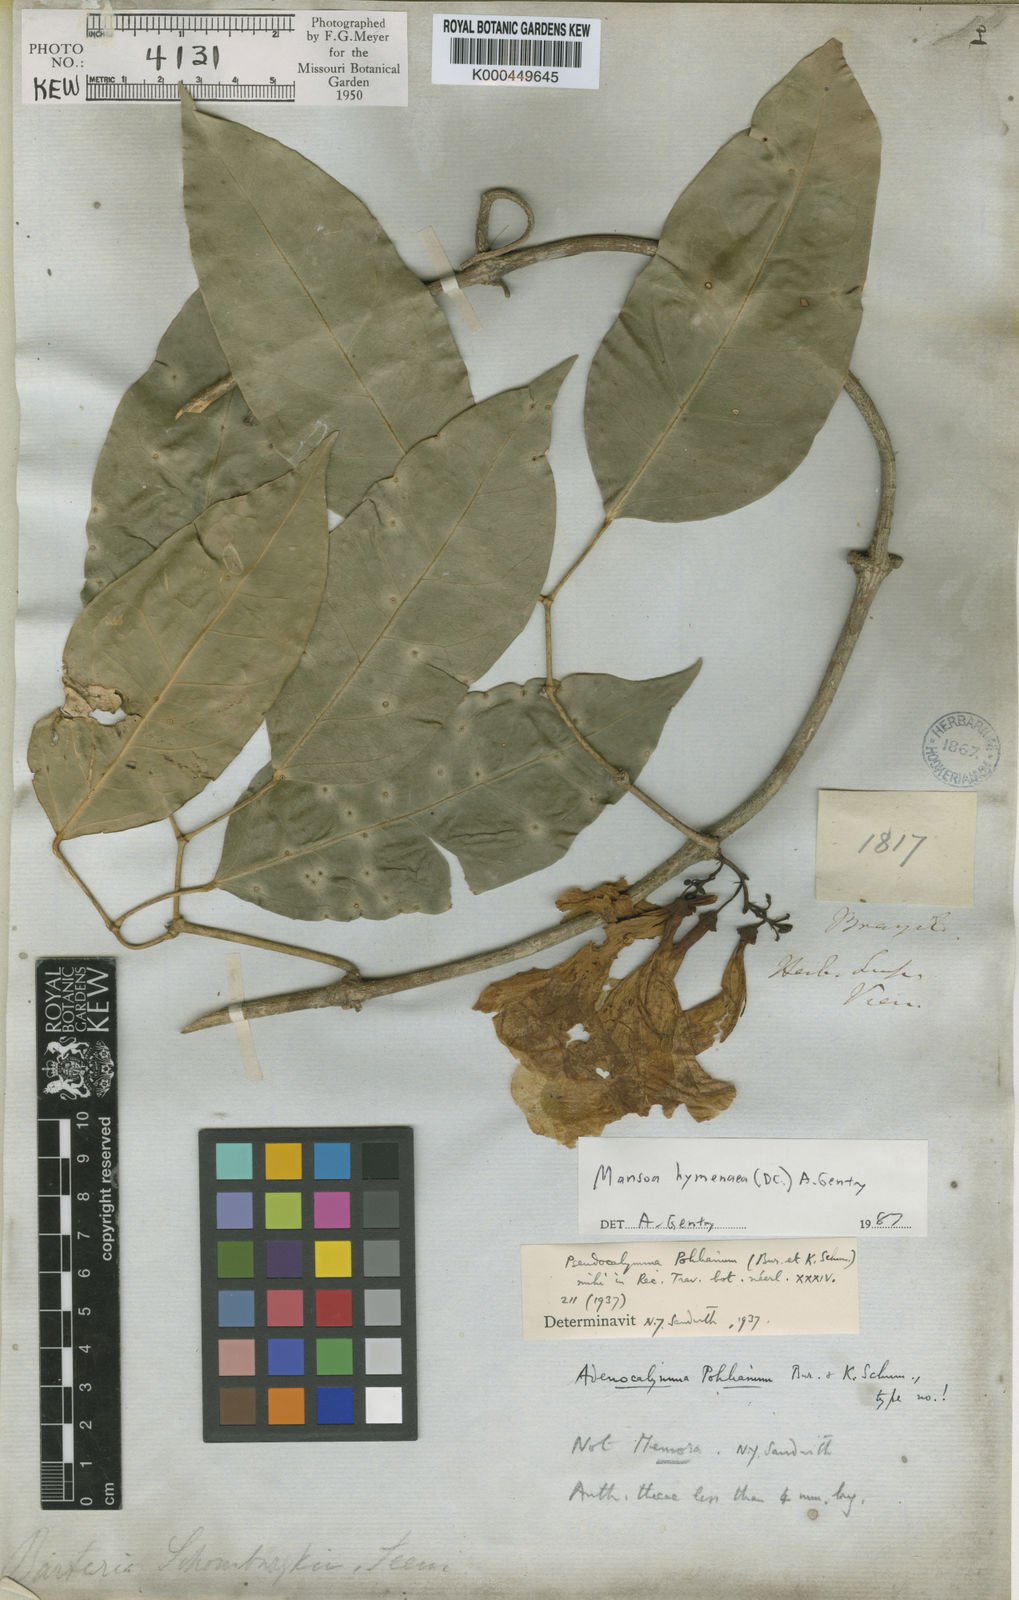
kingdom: Plantae
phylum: Tracheophyta
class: Magnoliopsida
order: Lamiales
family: Bignoniaceae
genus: Mansoa
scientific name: Mansoa hymenaea
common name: Membranous garlic vine
